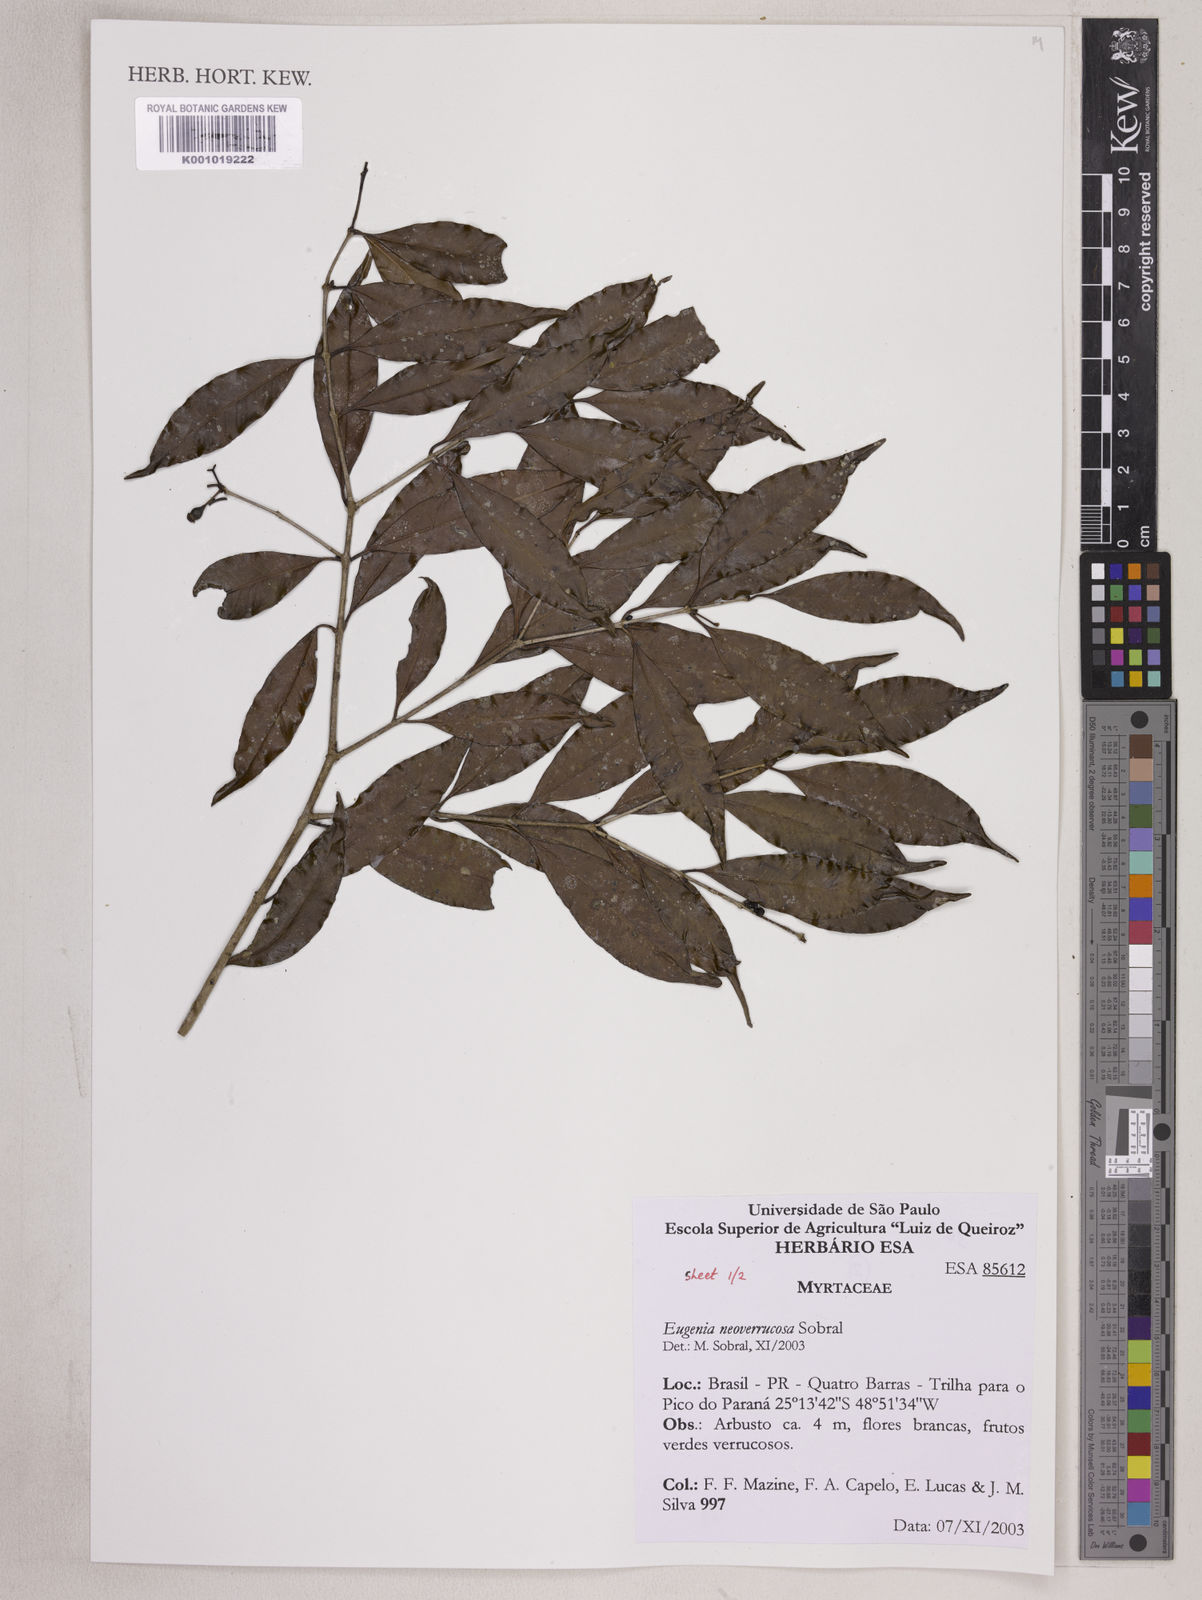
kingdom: Plantae
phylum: Tracheophyta
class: Magnoliopsida
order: Myrtales
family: Myrtaceae
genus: Eugenia
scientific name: Eugenia neoverrucosa
